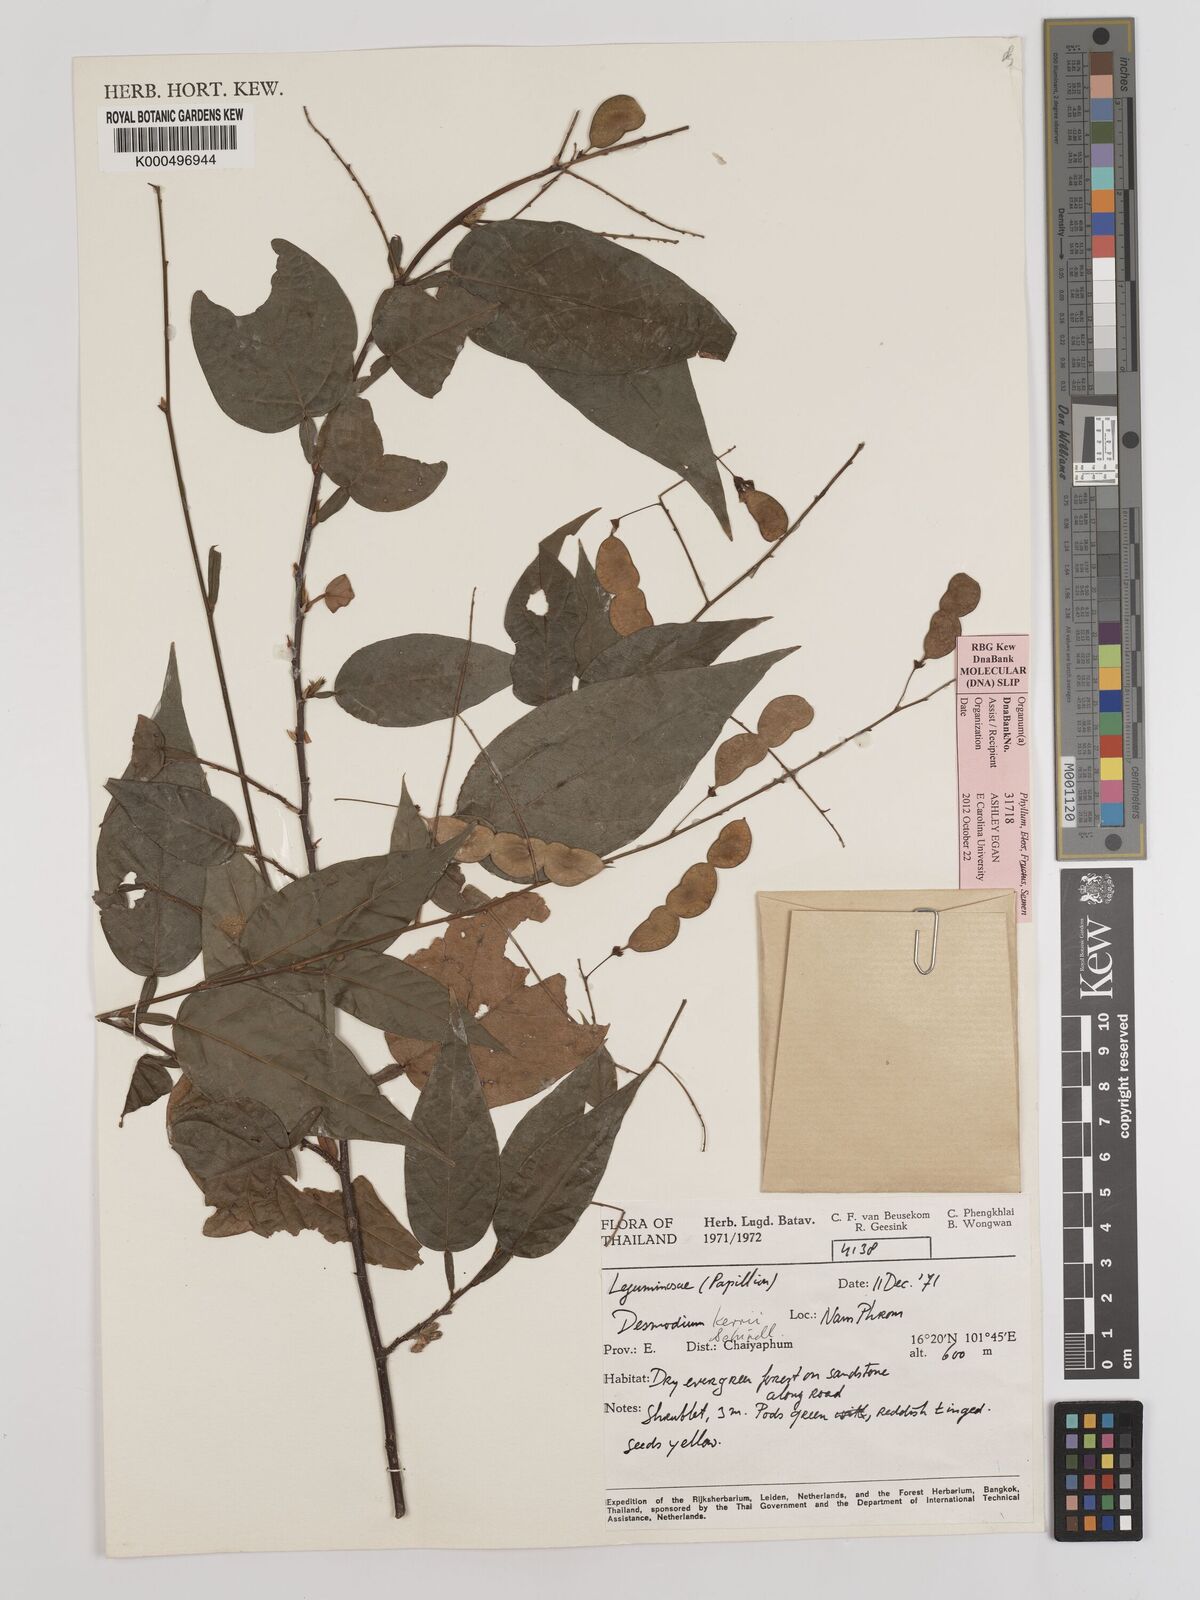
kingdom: Plantae
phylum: Tracheophyta
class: Magnoliopsida
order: Fabales
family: Fabaceae
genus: Tadehagi
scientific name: Tadehagi rodgeri
